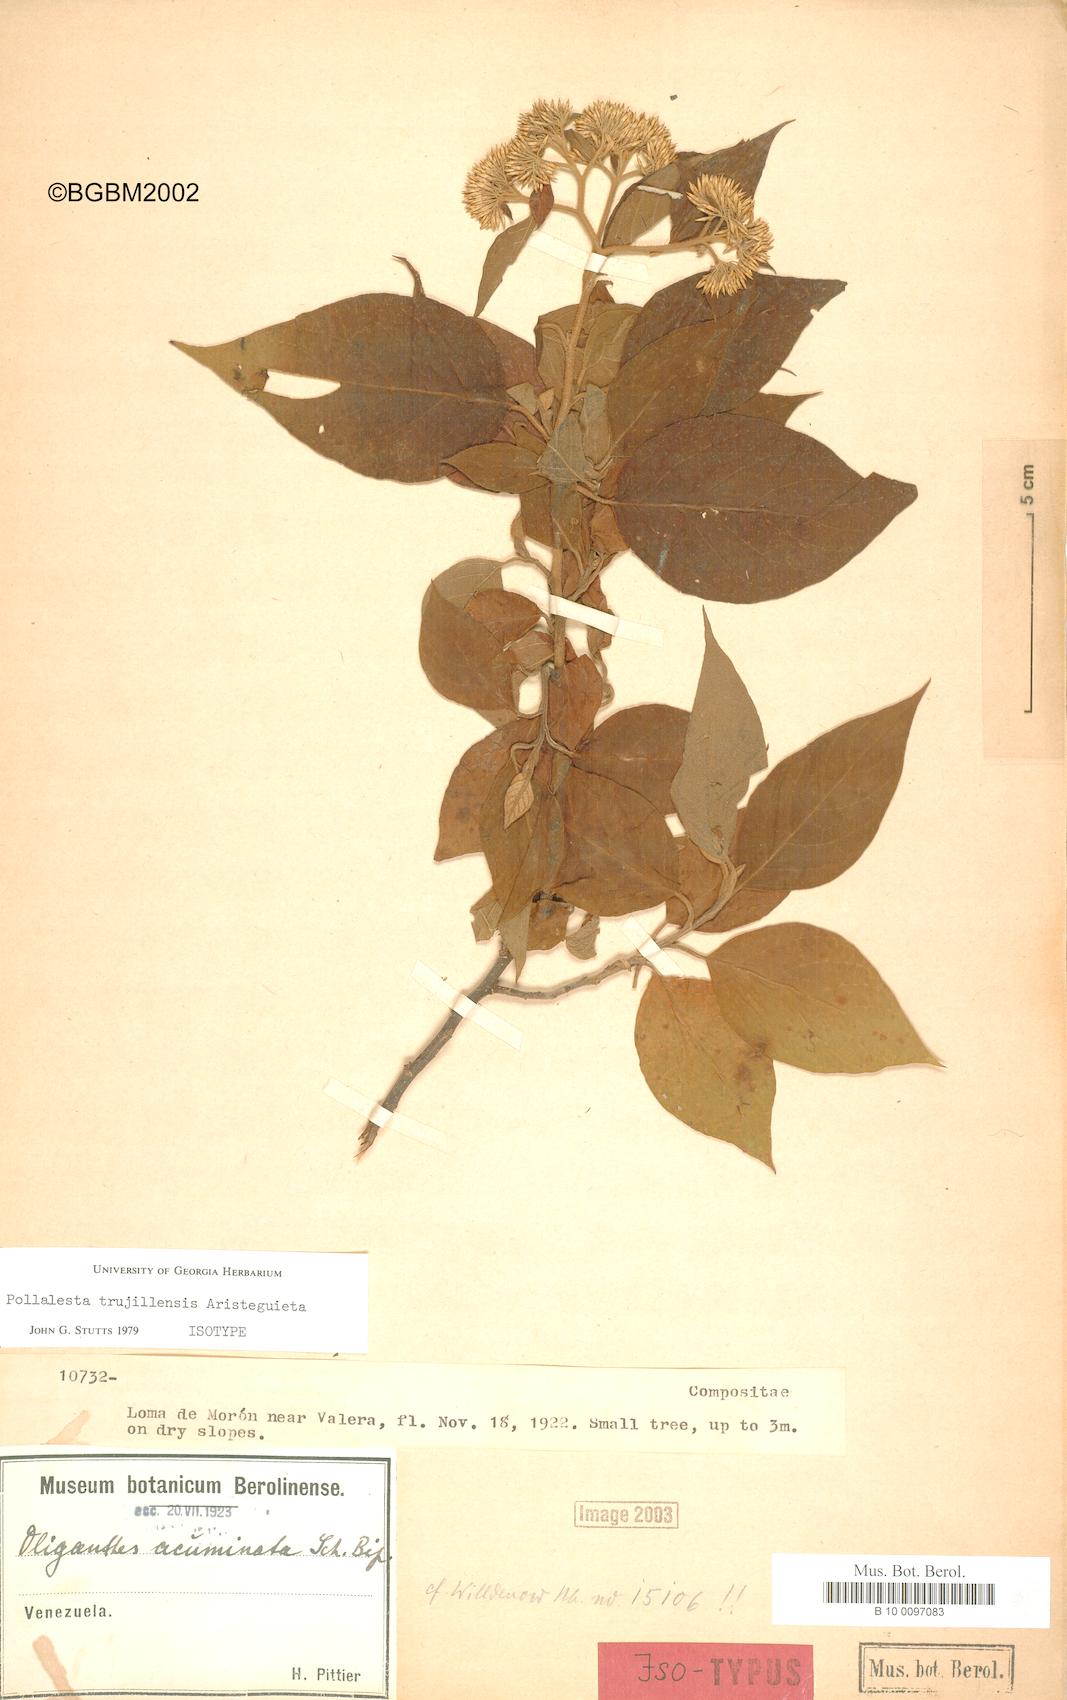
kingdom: Plantae
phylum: Tracheophyta
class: Magnoliopsida
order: Asterales
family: Asteraceae
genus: Piptocoma
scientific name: Piptocoma trujillensis
